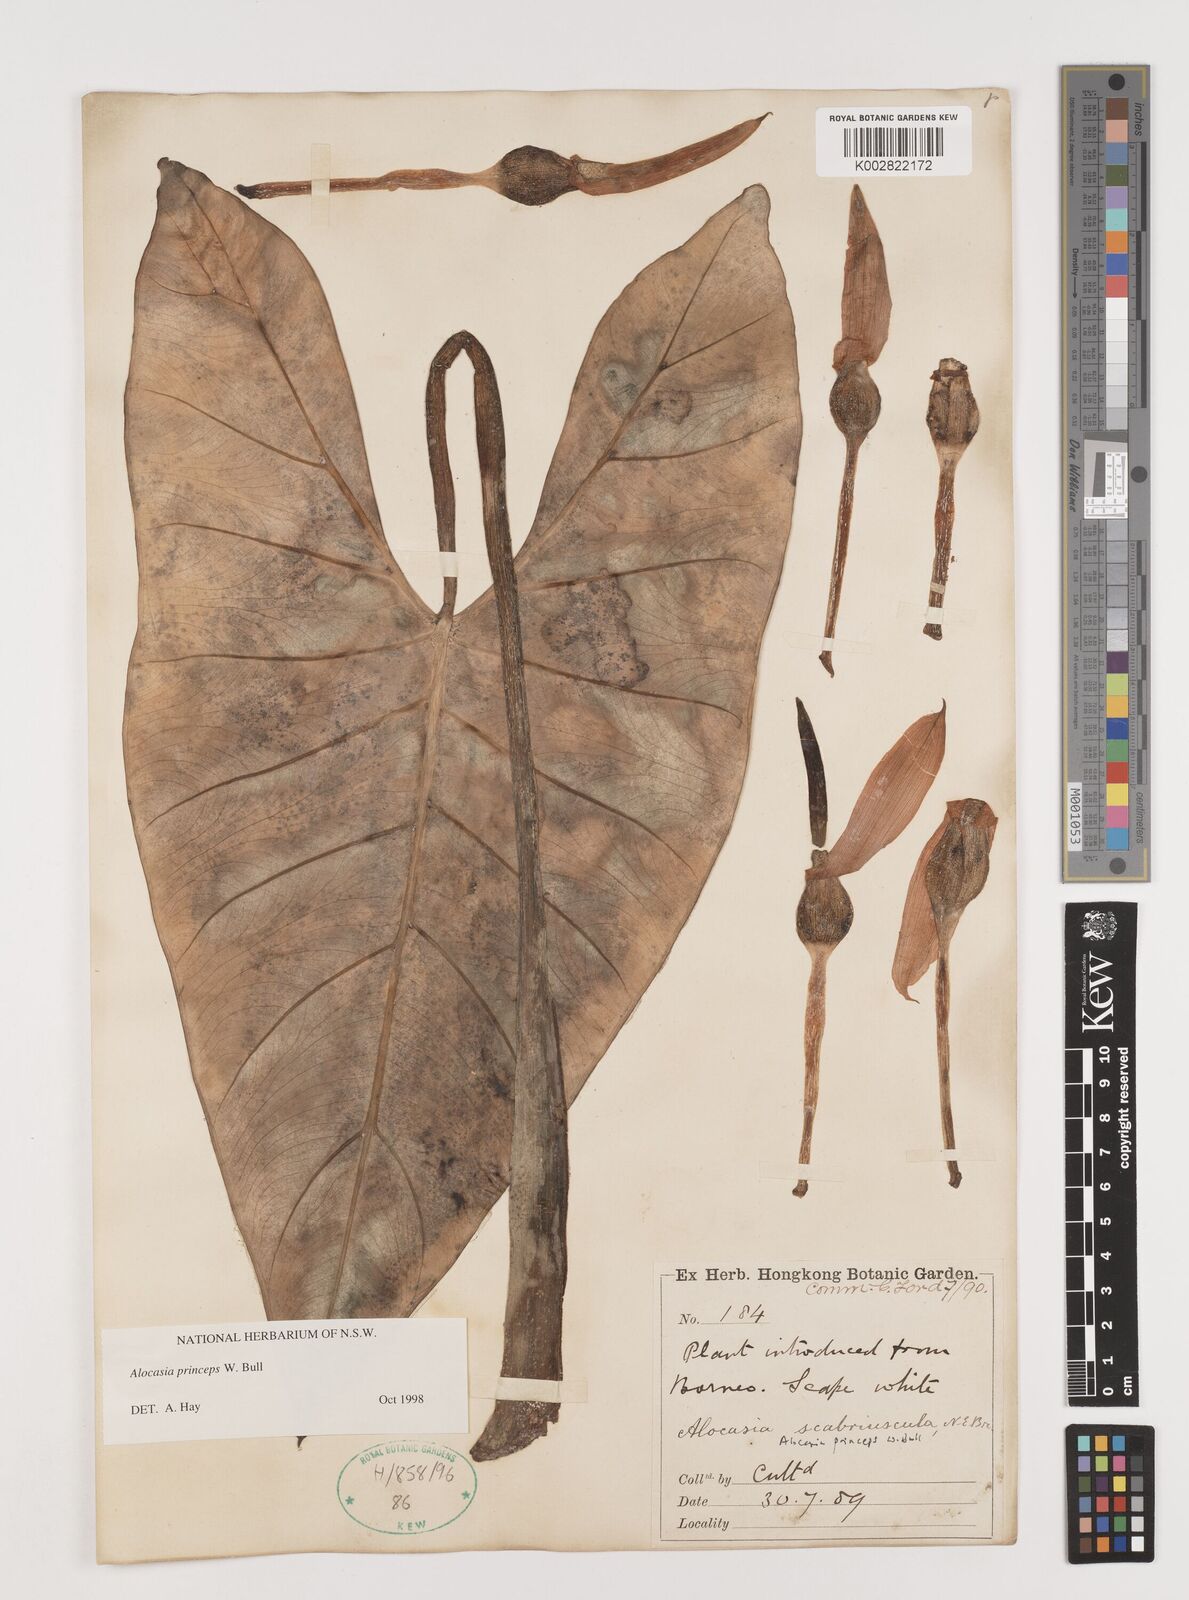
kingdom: Plantae
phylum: Tracheophyta
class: Liliopsida
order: Alismatales
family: Araceae
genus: Alocasia
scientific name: Alocasia princeps
